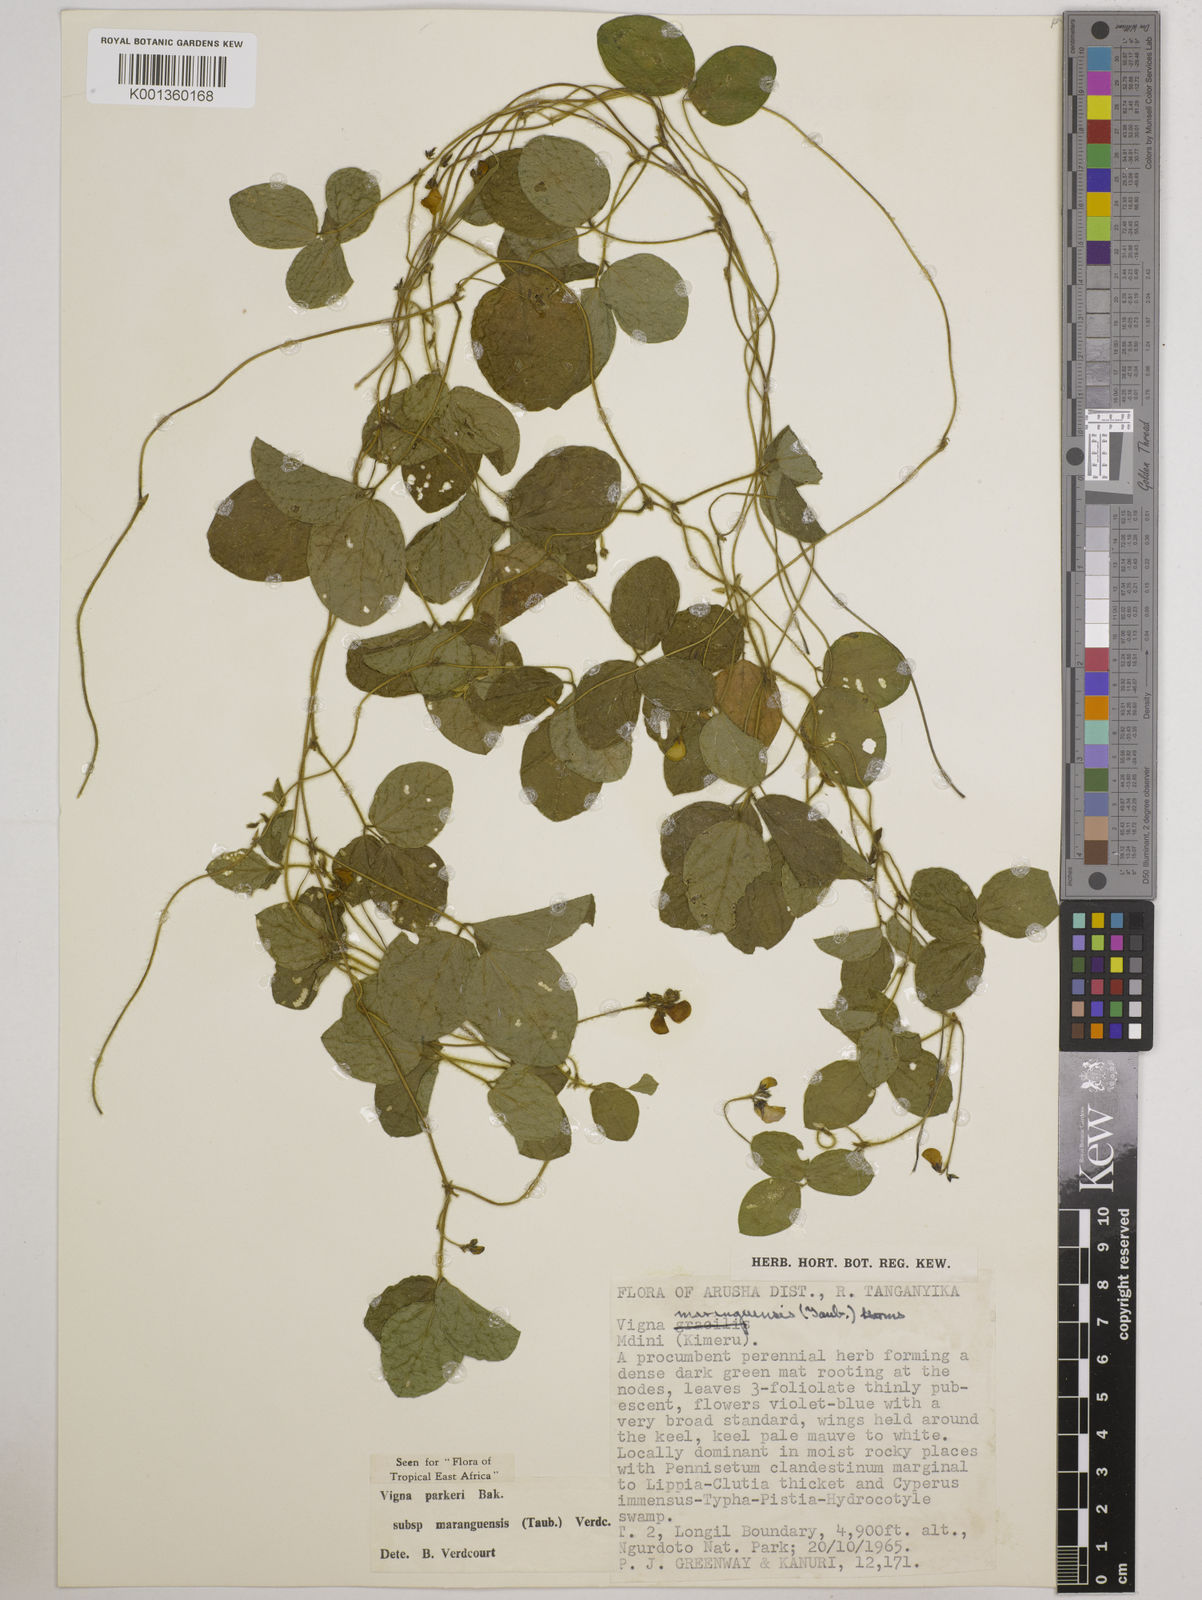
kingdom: Plantae
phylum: Tracheophyta
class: Magnoliopsida
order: Fabales
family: Fabaceae
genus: Vigna
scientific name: Vigna
